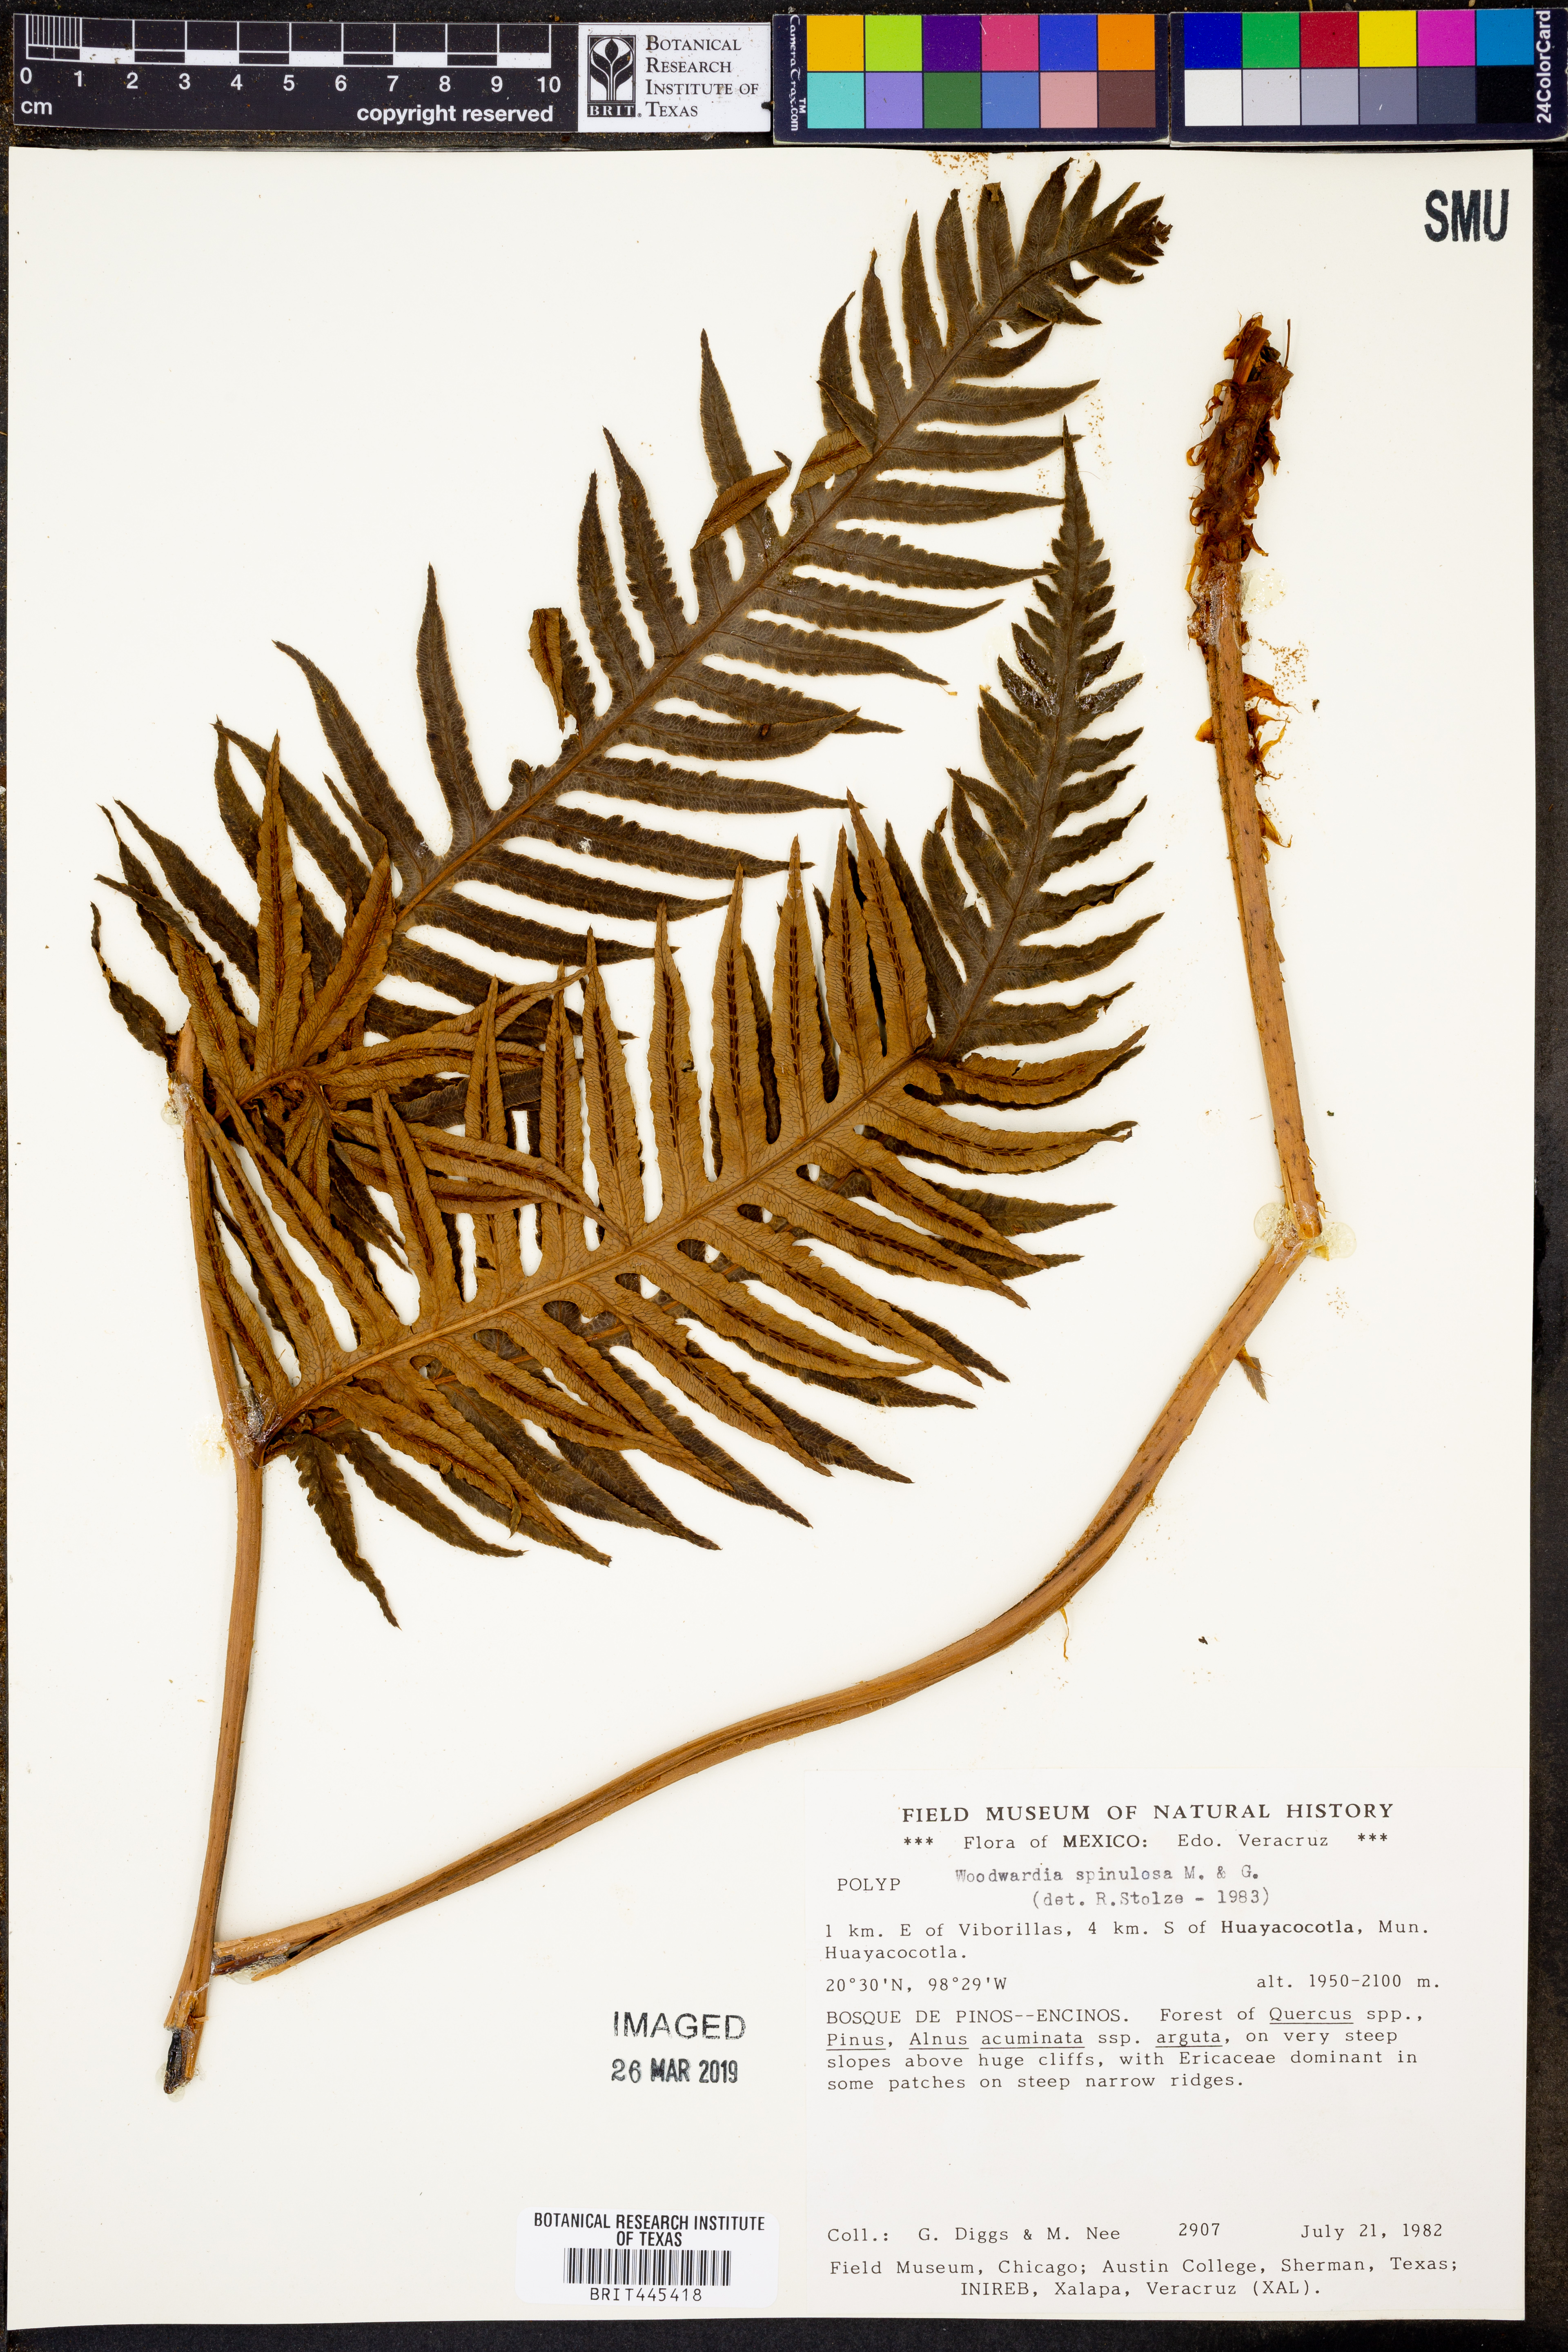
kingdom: Plantae
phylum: Tracheophyta
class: Polypodiopsida
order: Polypodiales
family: Blechnaceae
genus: Woodwardia
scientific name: Woodwardia spinulosa
